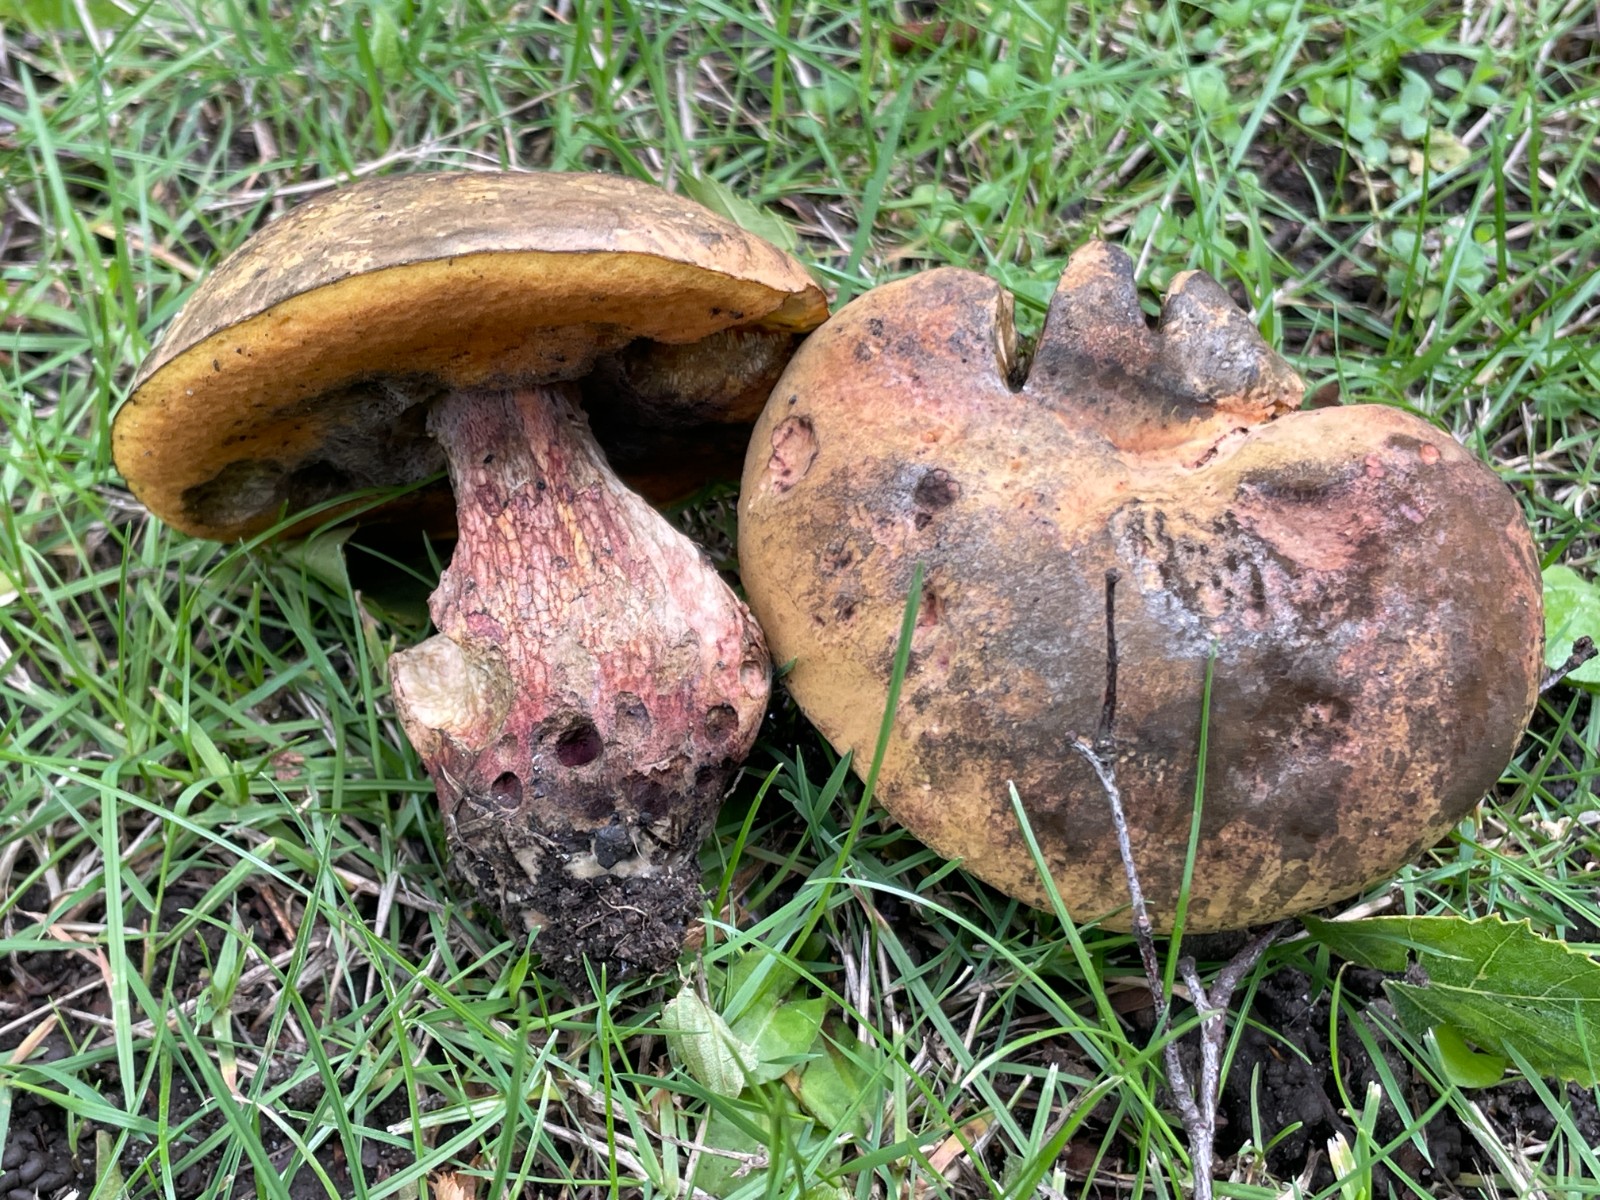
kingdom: Fungi
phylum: Basidiomycota
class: Agaricomycetes
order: Boletales
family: Boletaceae
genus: Suillellus
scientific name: Suillellus luridus
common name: netstokket indigorørhat
